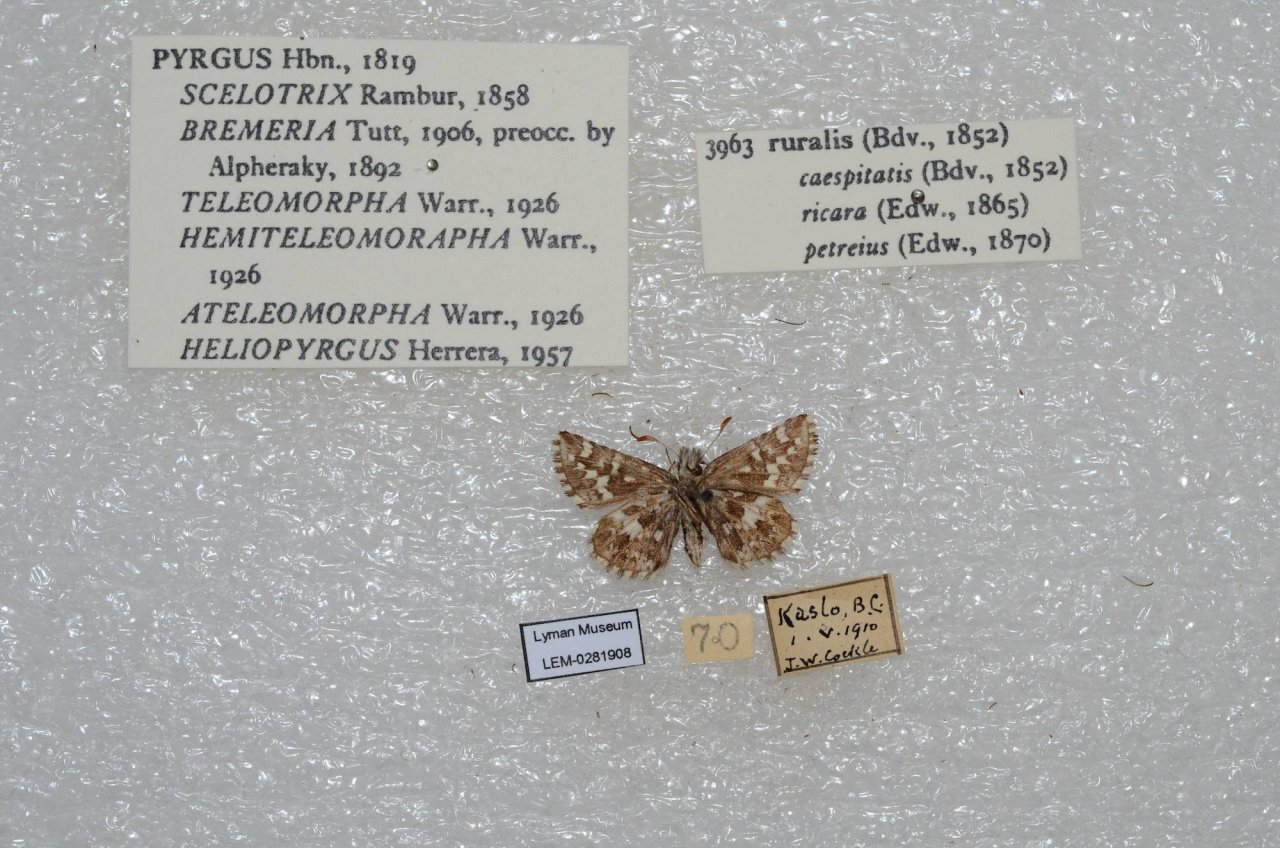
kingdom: Animalia
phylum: Arthropoda
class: Insecta
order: Lepidoptera
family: Hesperiidae
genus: Pyrgus
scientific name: Pyrgus ruralis
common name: Two-banded Checkered-Skipper
